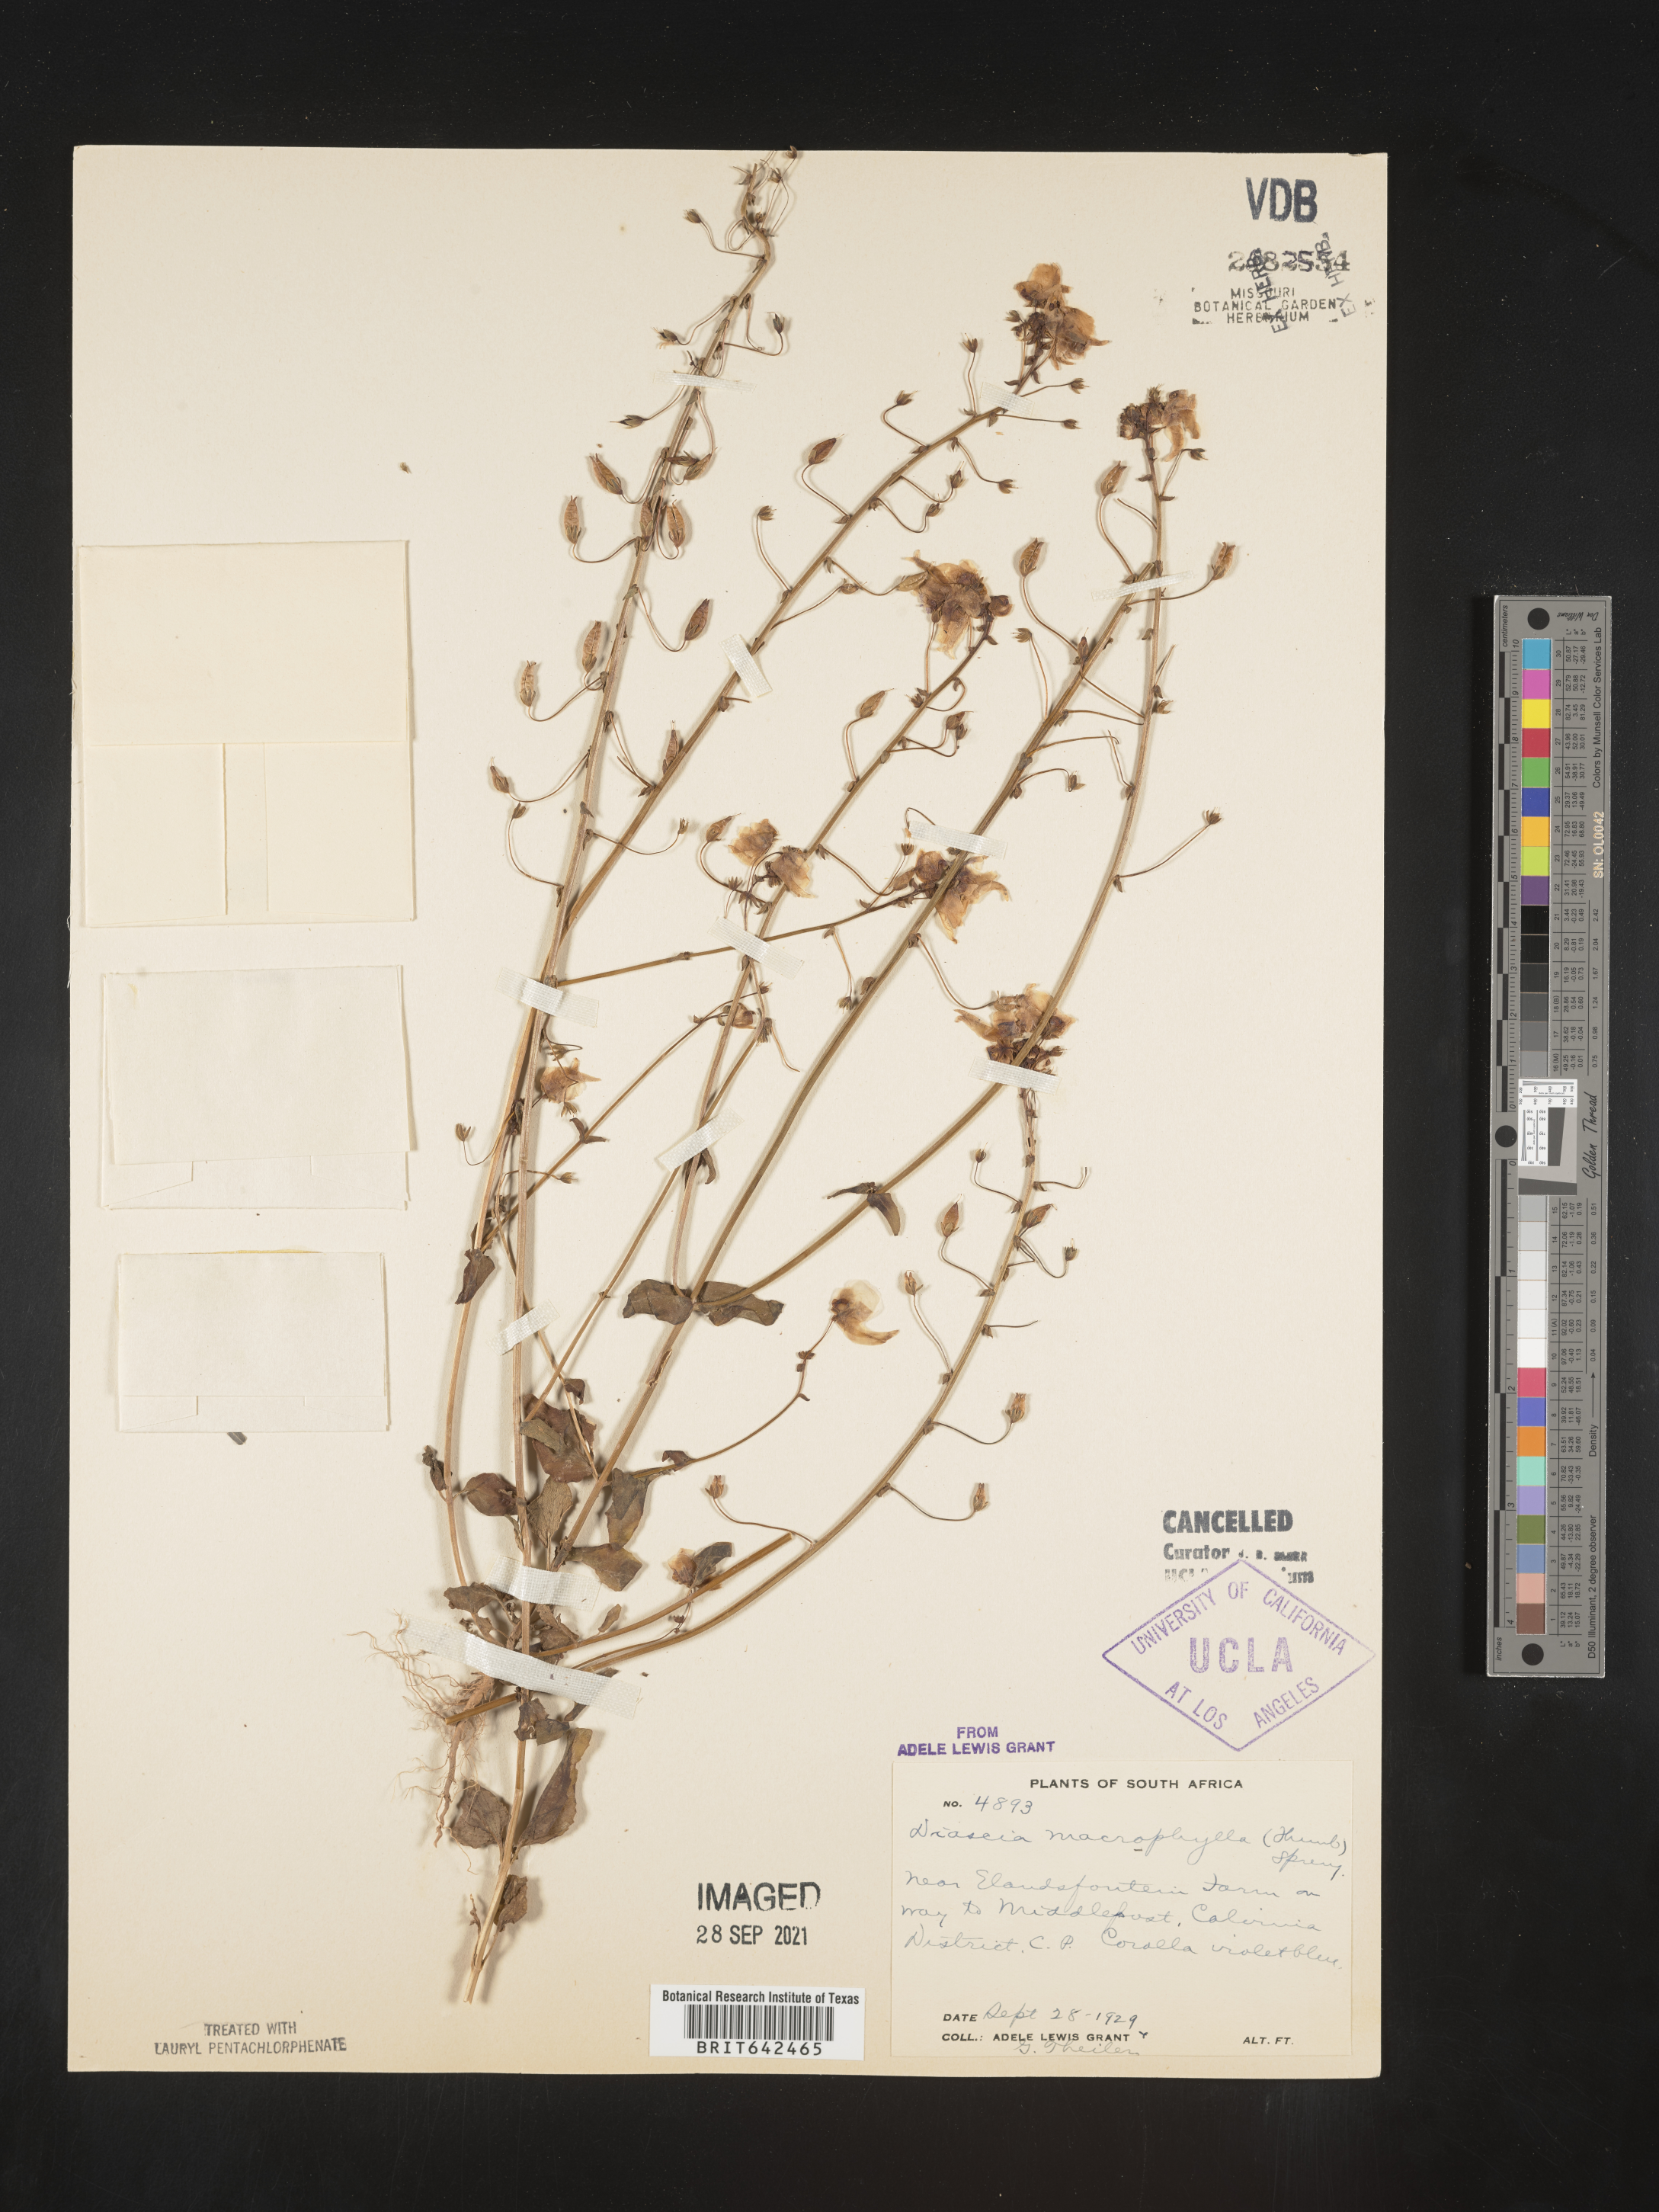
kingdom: Plantae
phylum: Tracheophyta
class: Magnoliopsida
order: Lamiales
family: Scrophulariaceae
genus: Diascia
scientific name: Diascia
